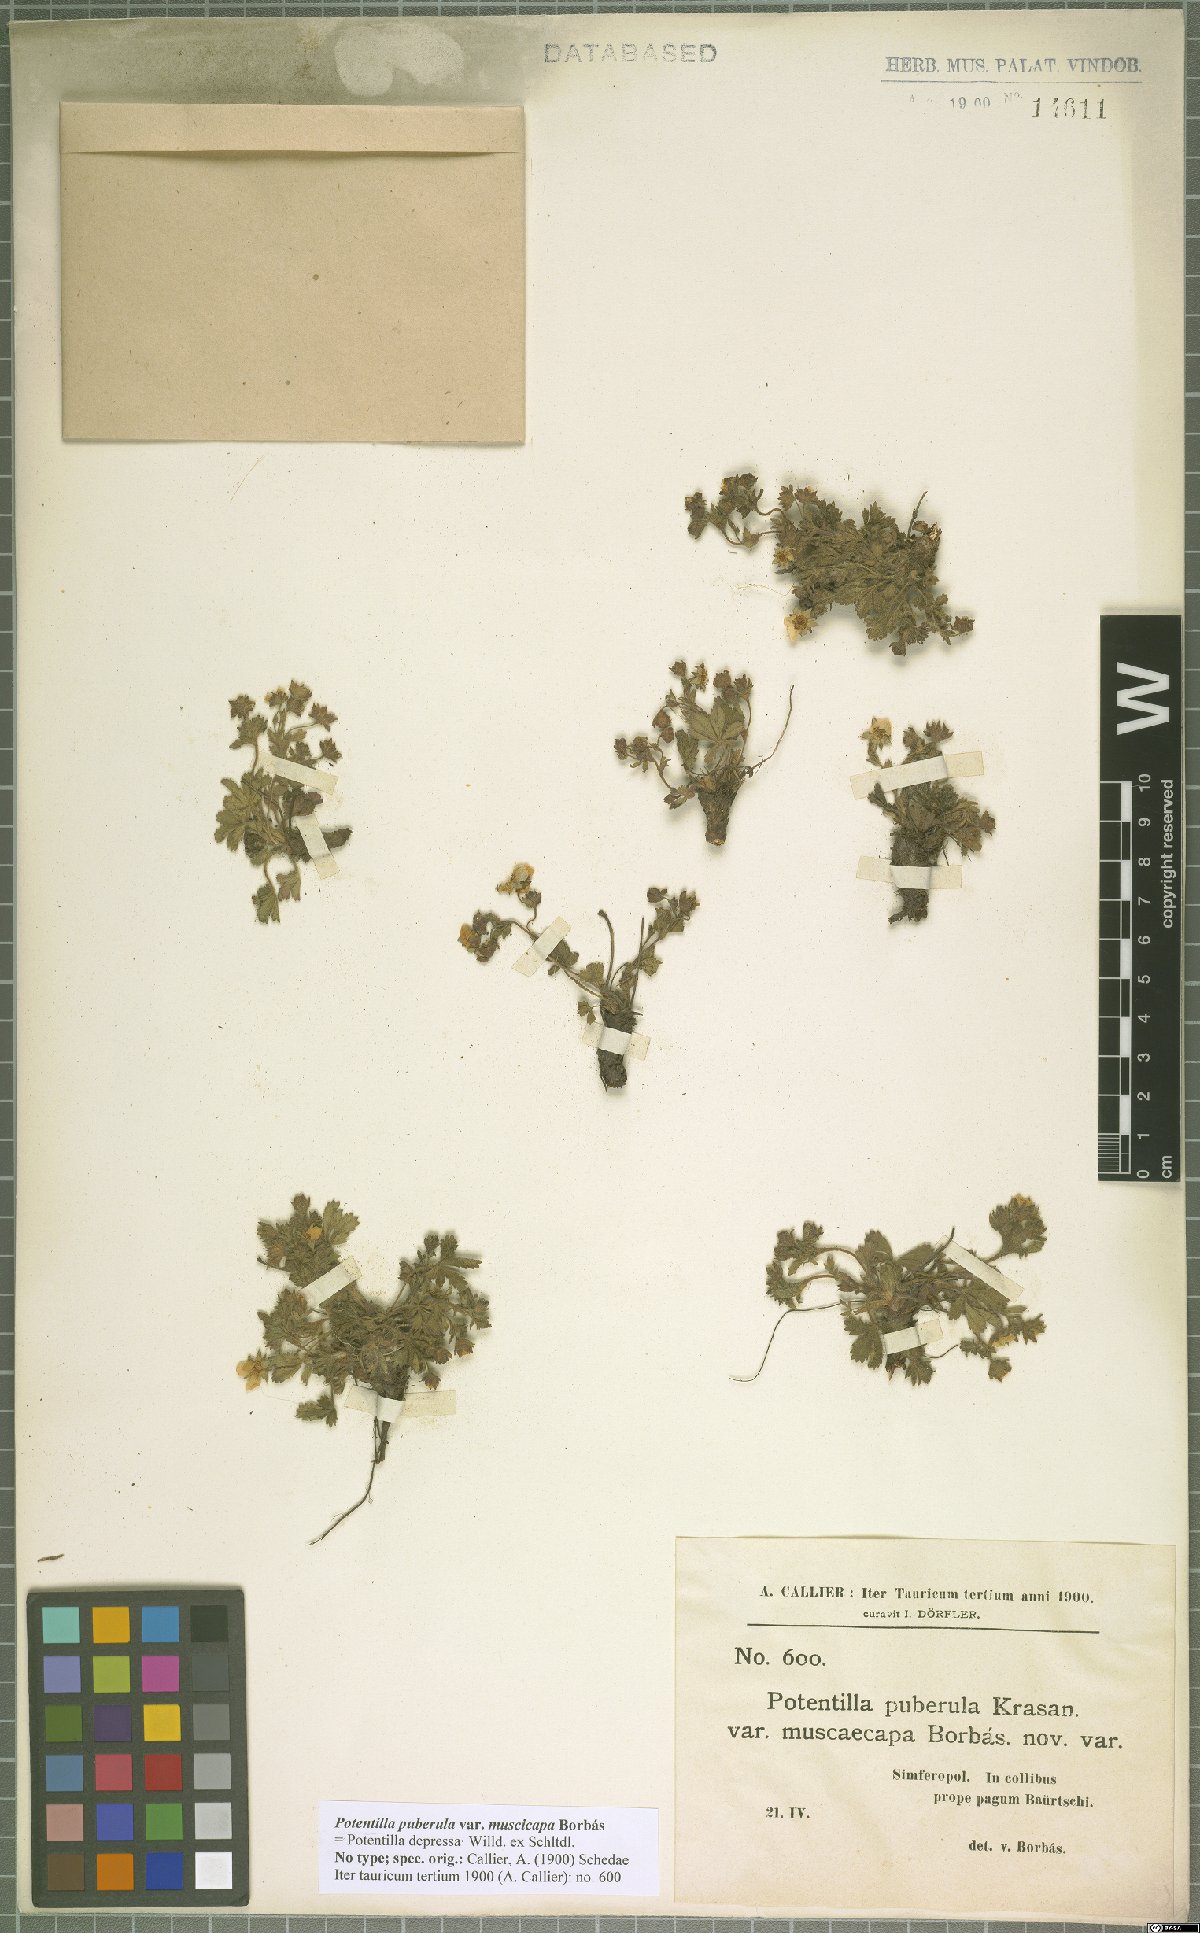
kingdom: Plantae
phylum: Tracheophyta
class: Magnoliopsida
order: Rosales
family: Rosaceae
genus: Potentilla
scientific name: Potentilla pusilla
